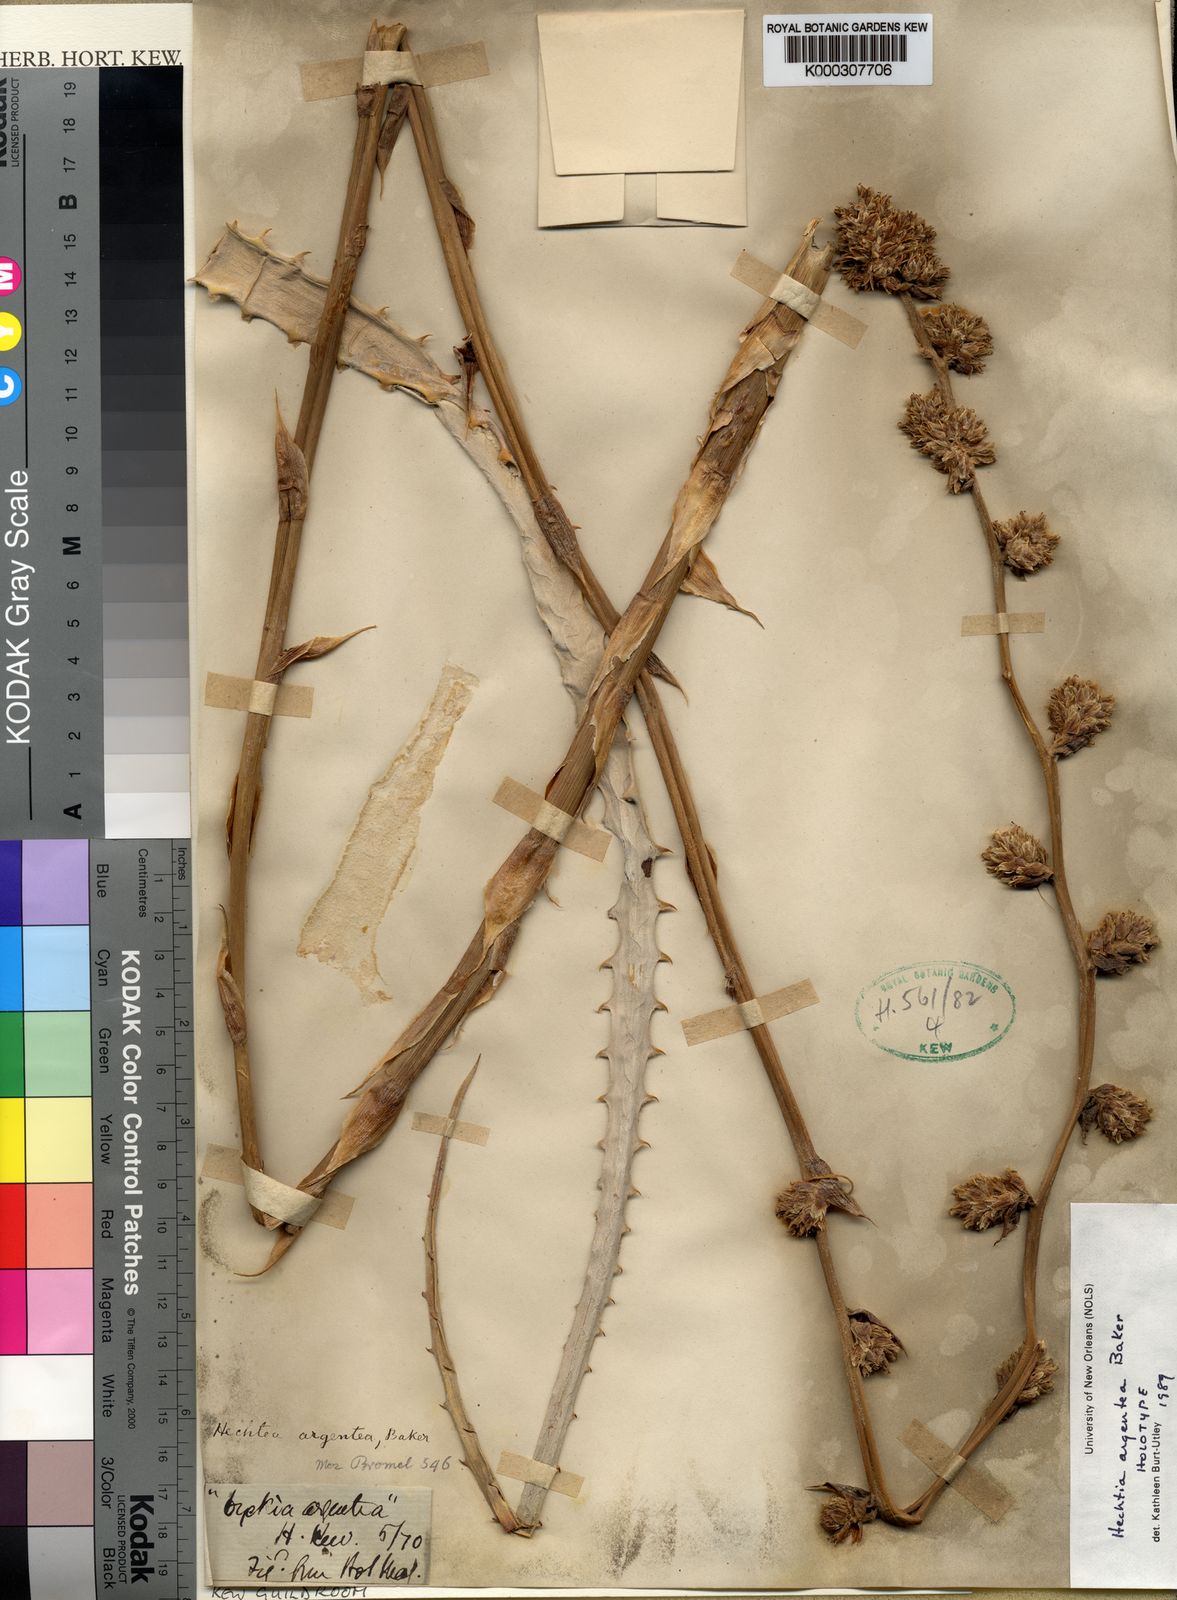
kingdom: Plantae
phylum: Tracheophyta
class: Liliopsida
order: Poales
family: Bromeliaceae
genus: Hechtia
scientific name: Hechtia argentea
